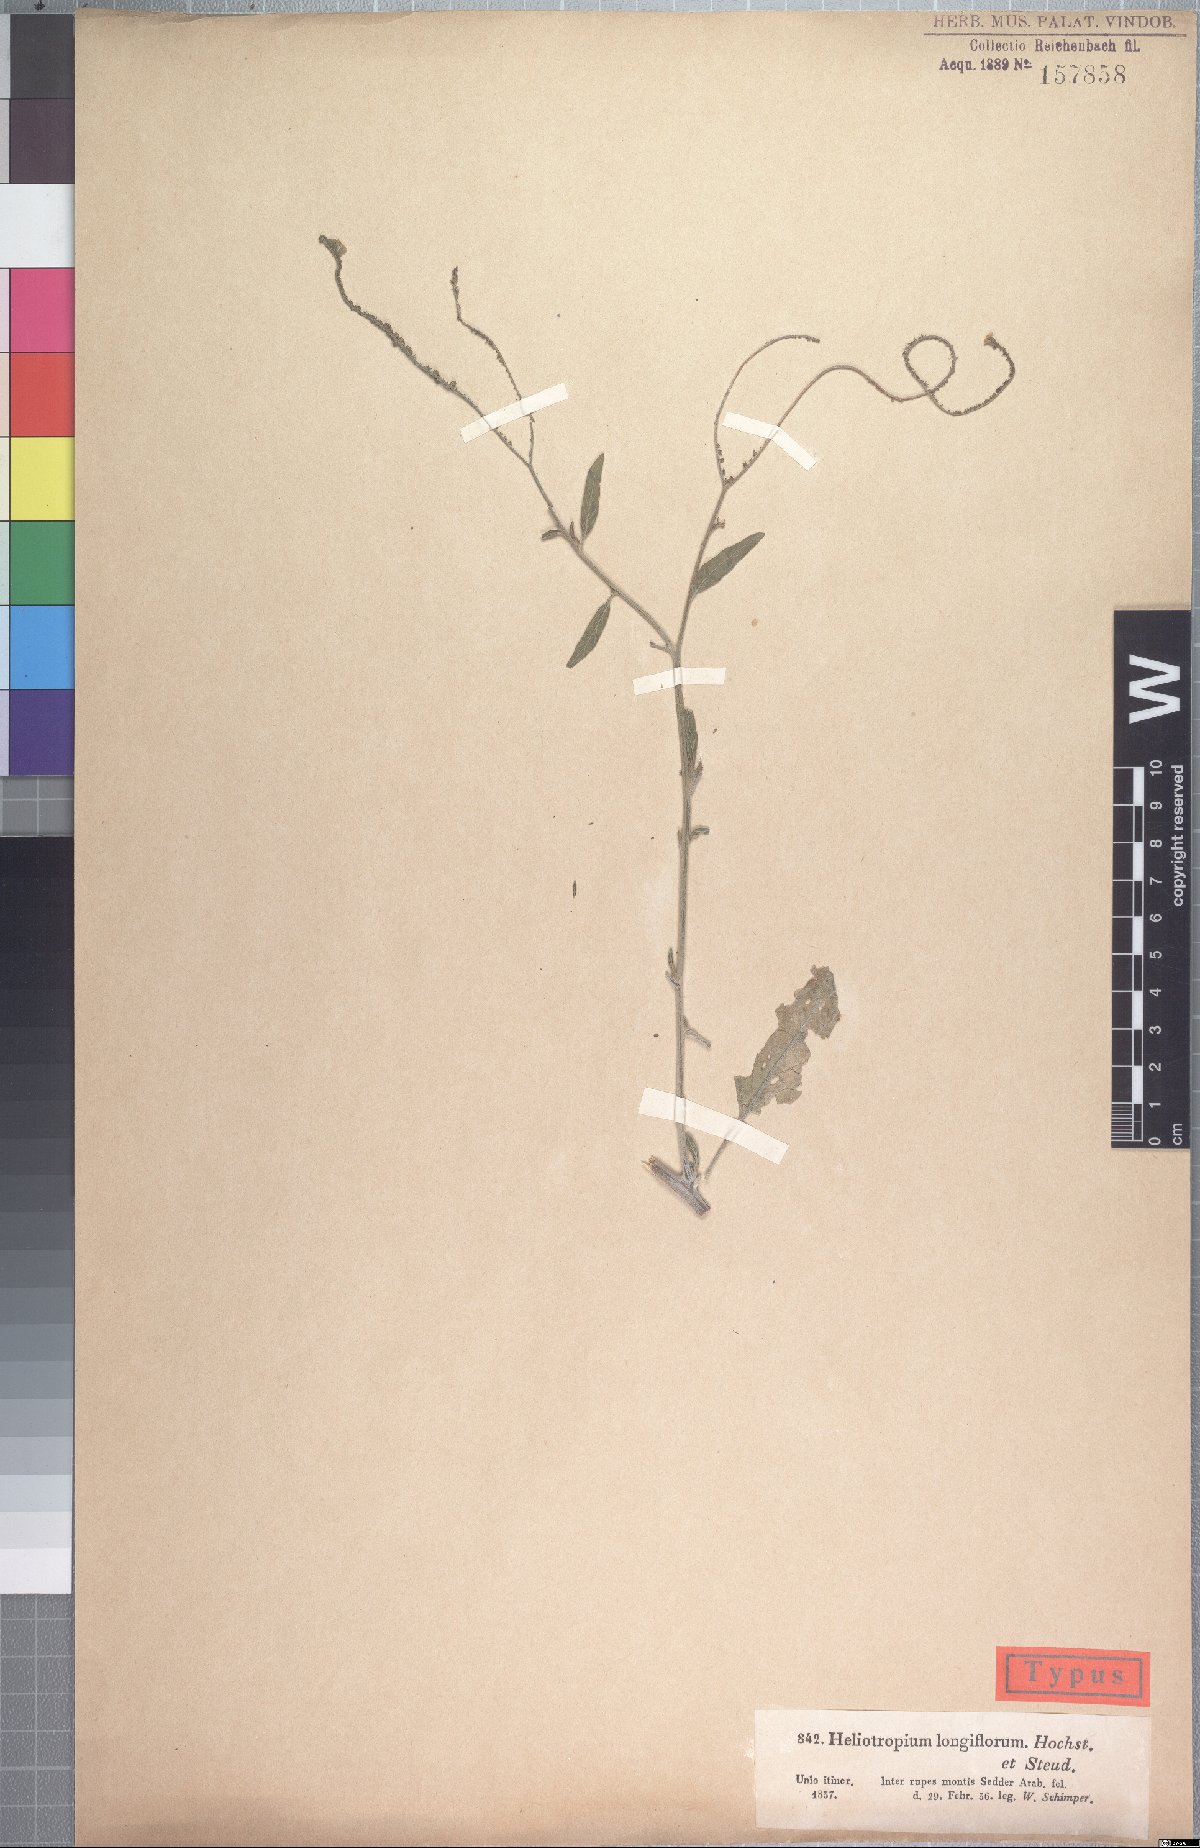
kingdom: Plantae
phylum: Tracheophyta
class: Magnoliopsida
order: Boraginales
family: Heliotropiaceae
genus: Heliotropium
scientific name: Heliotropium longiflorum
